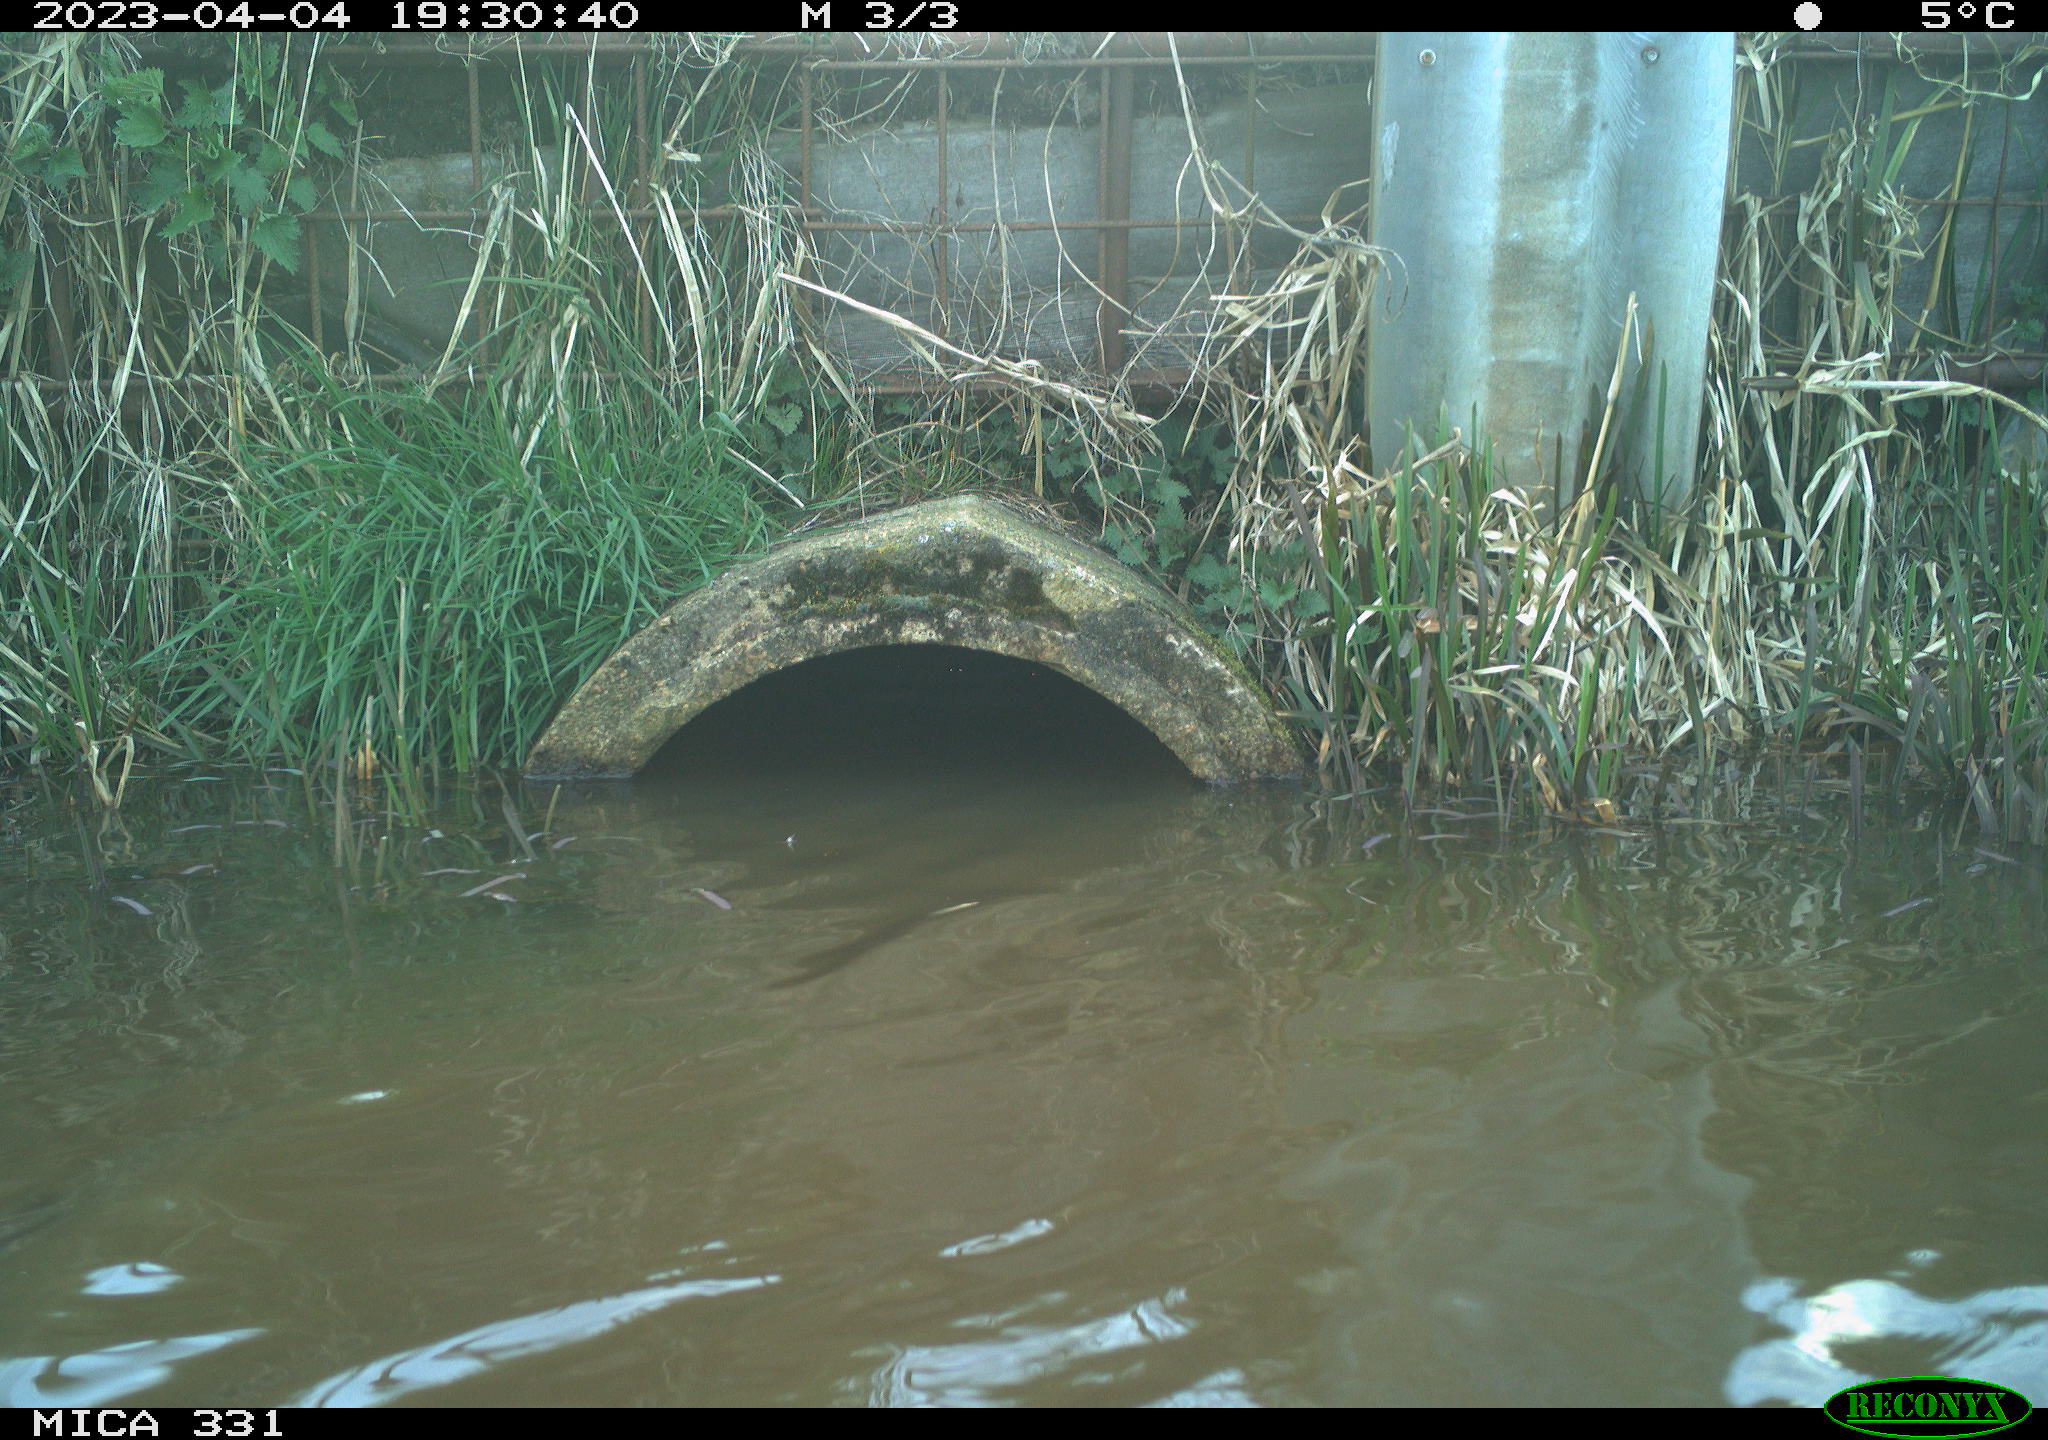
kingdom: Animalia
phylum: Chordata
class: Aves
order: Gruiformes
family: Rallidae
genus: Fulica
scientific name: Fulica atra
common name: Eurasian coot
